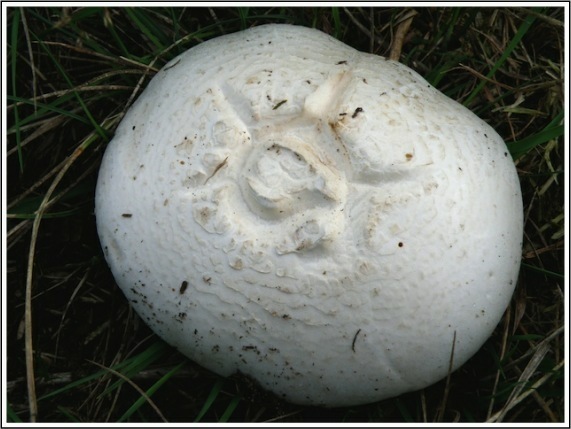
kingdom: Fungi
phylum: Basidiomycota
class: Agaricomycetes
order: Agaricales
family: Agaricaceae
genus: Agaricus
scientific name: Agaricus campestris
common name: mark-champignon
